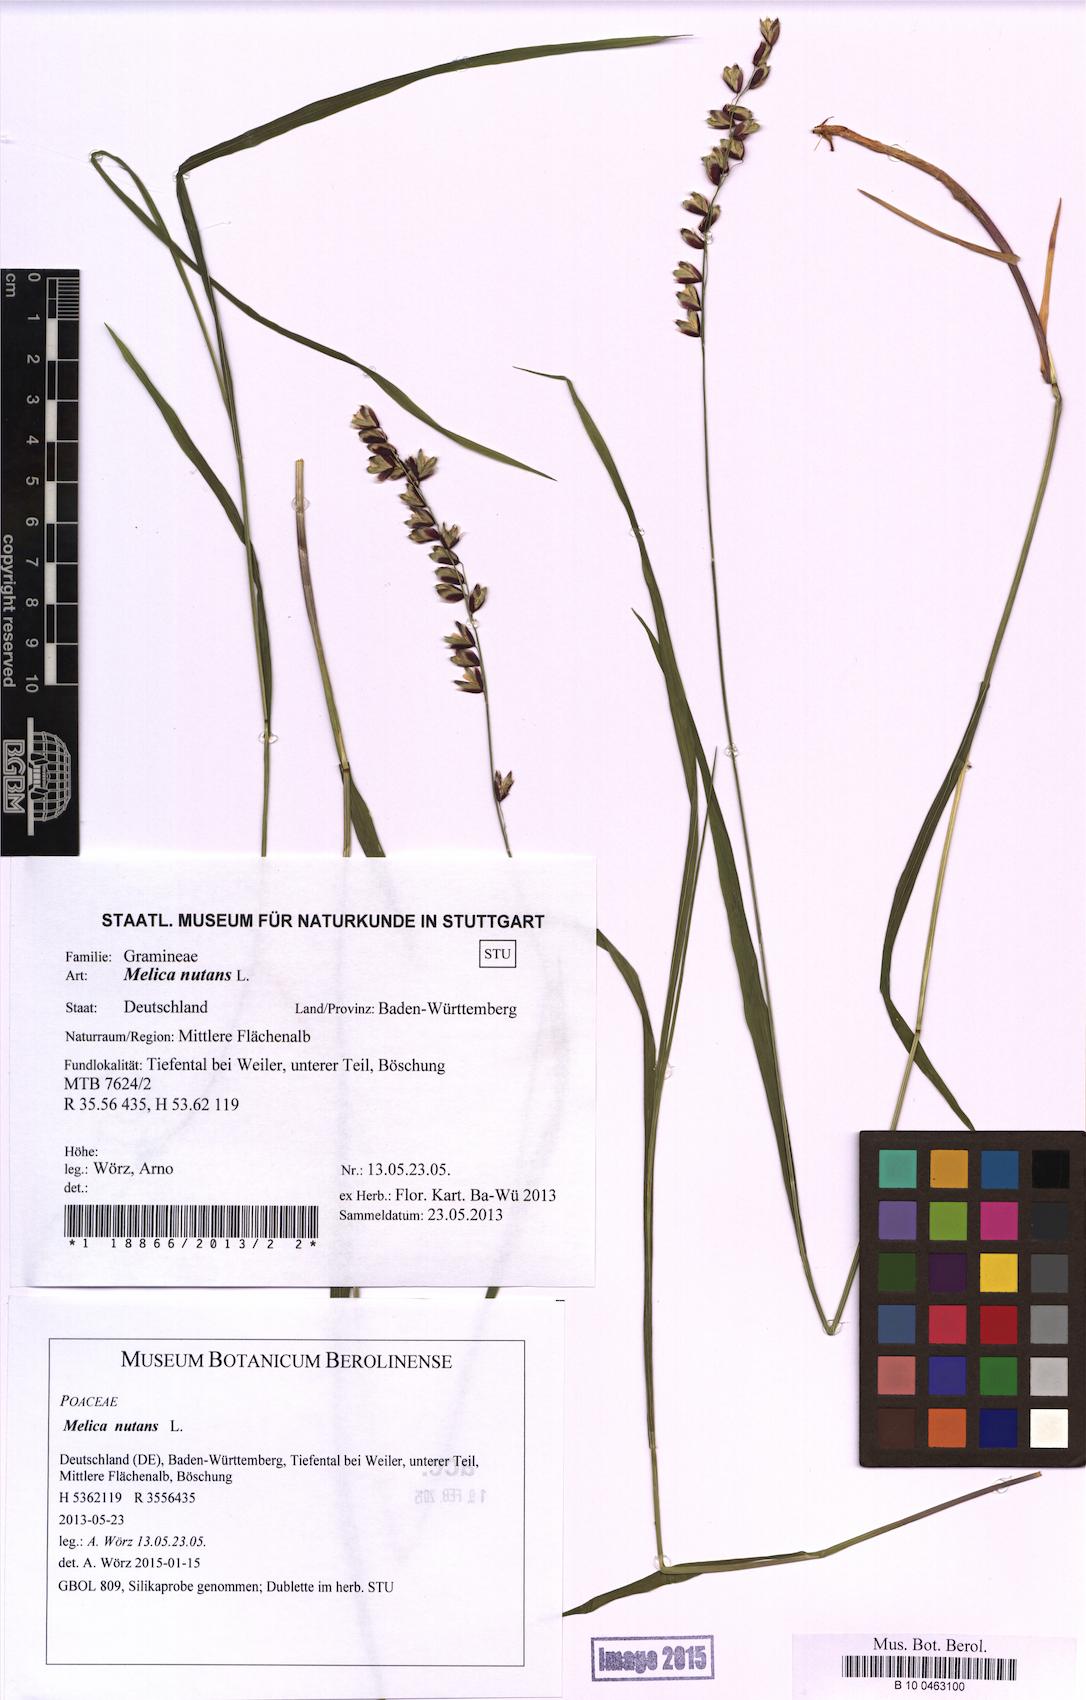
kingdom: Plantae
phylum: Tracheophyta
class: Liliopsida
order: Poales
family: Poaceae
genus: Melica
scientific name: Melica nutans
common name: Mountain melick
